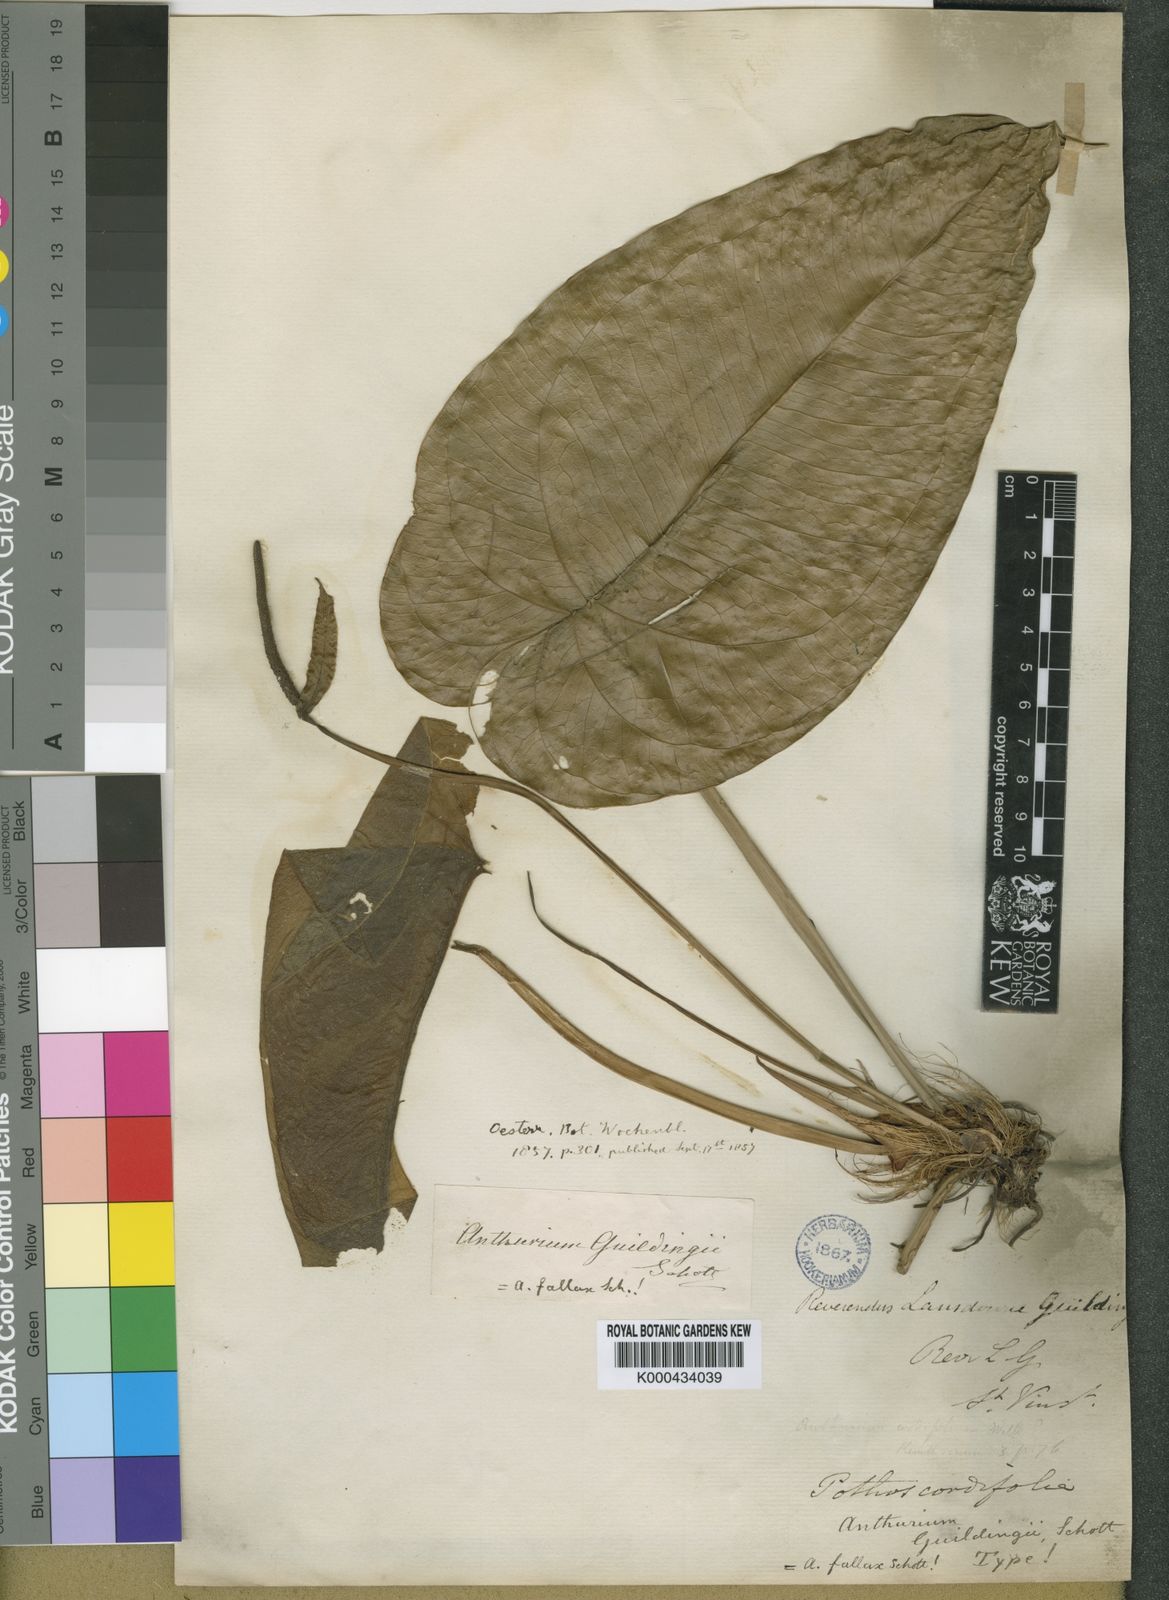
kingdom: Plantae
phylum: Tracheophyta
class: Liliopsida
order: Alismatales
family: Araceae
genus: Anthurium
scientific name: Anthurium cordatum
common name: Monkey tail
